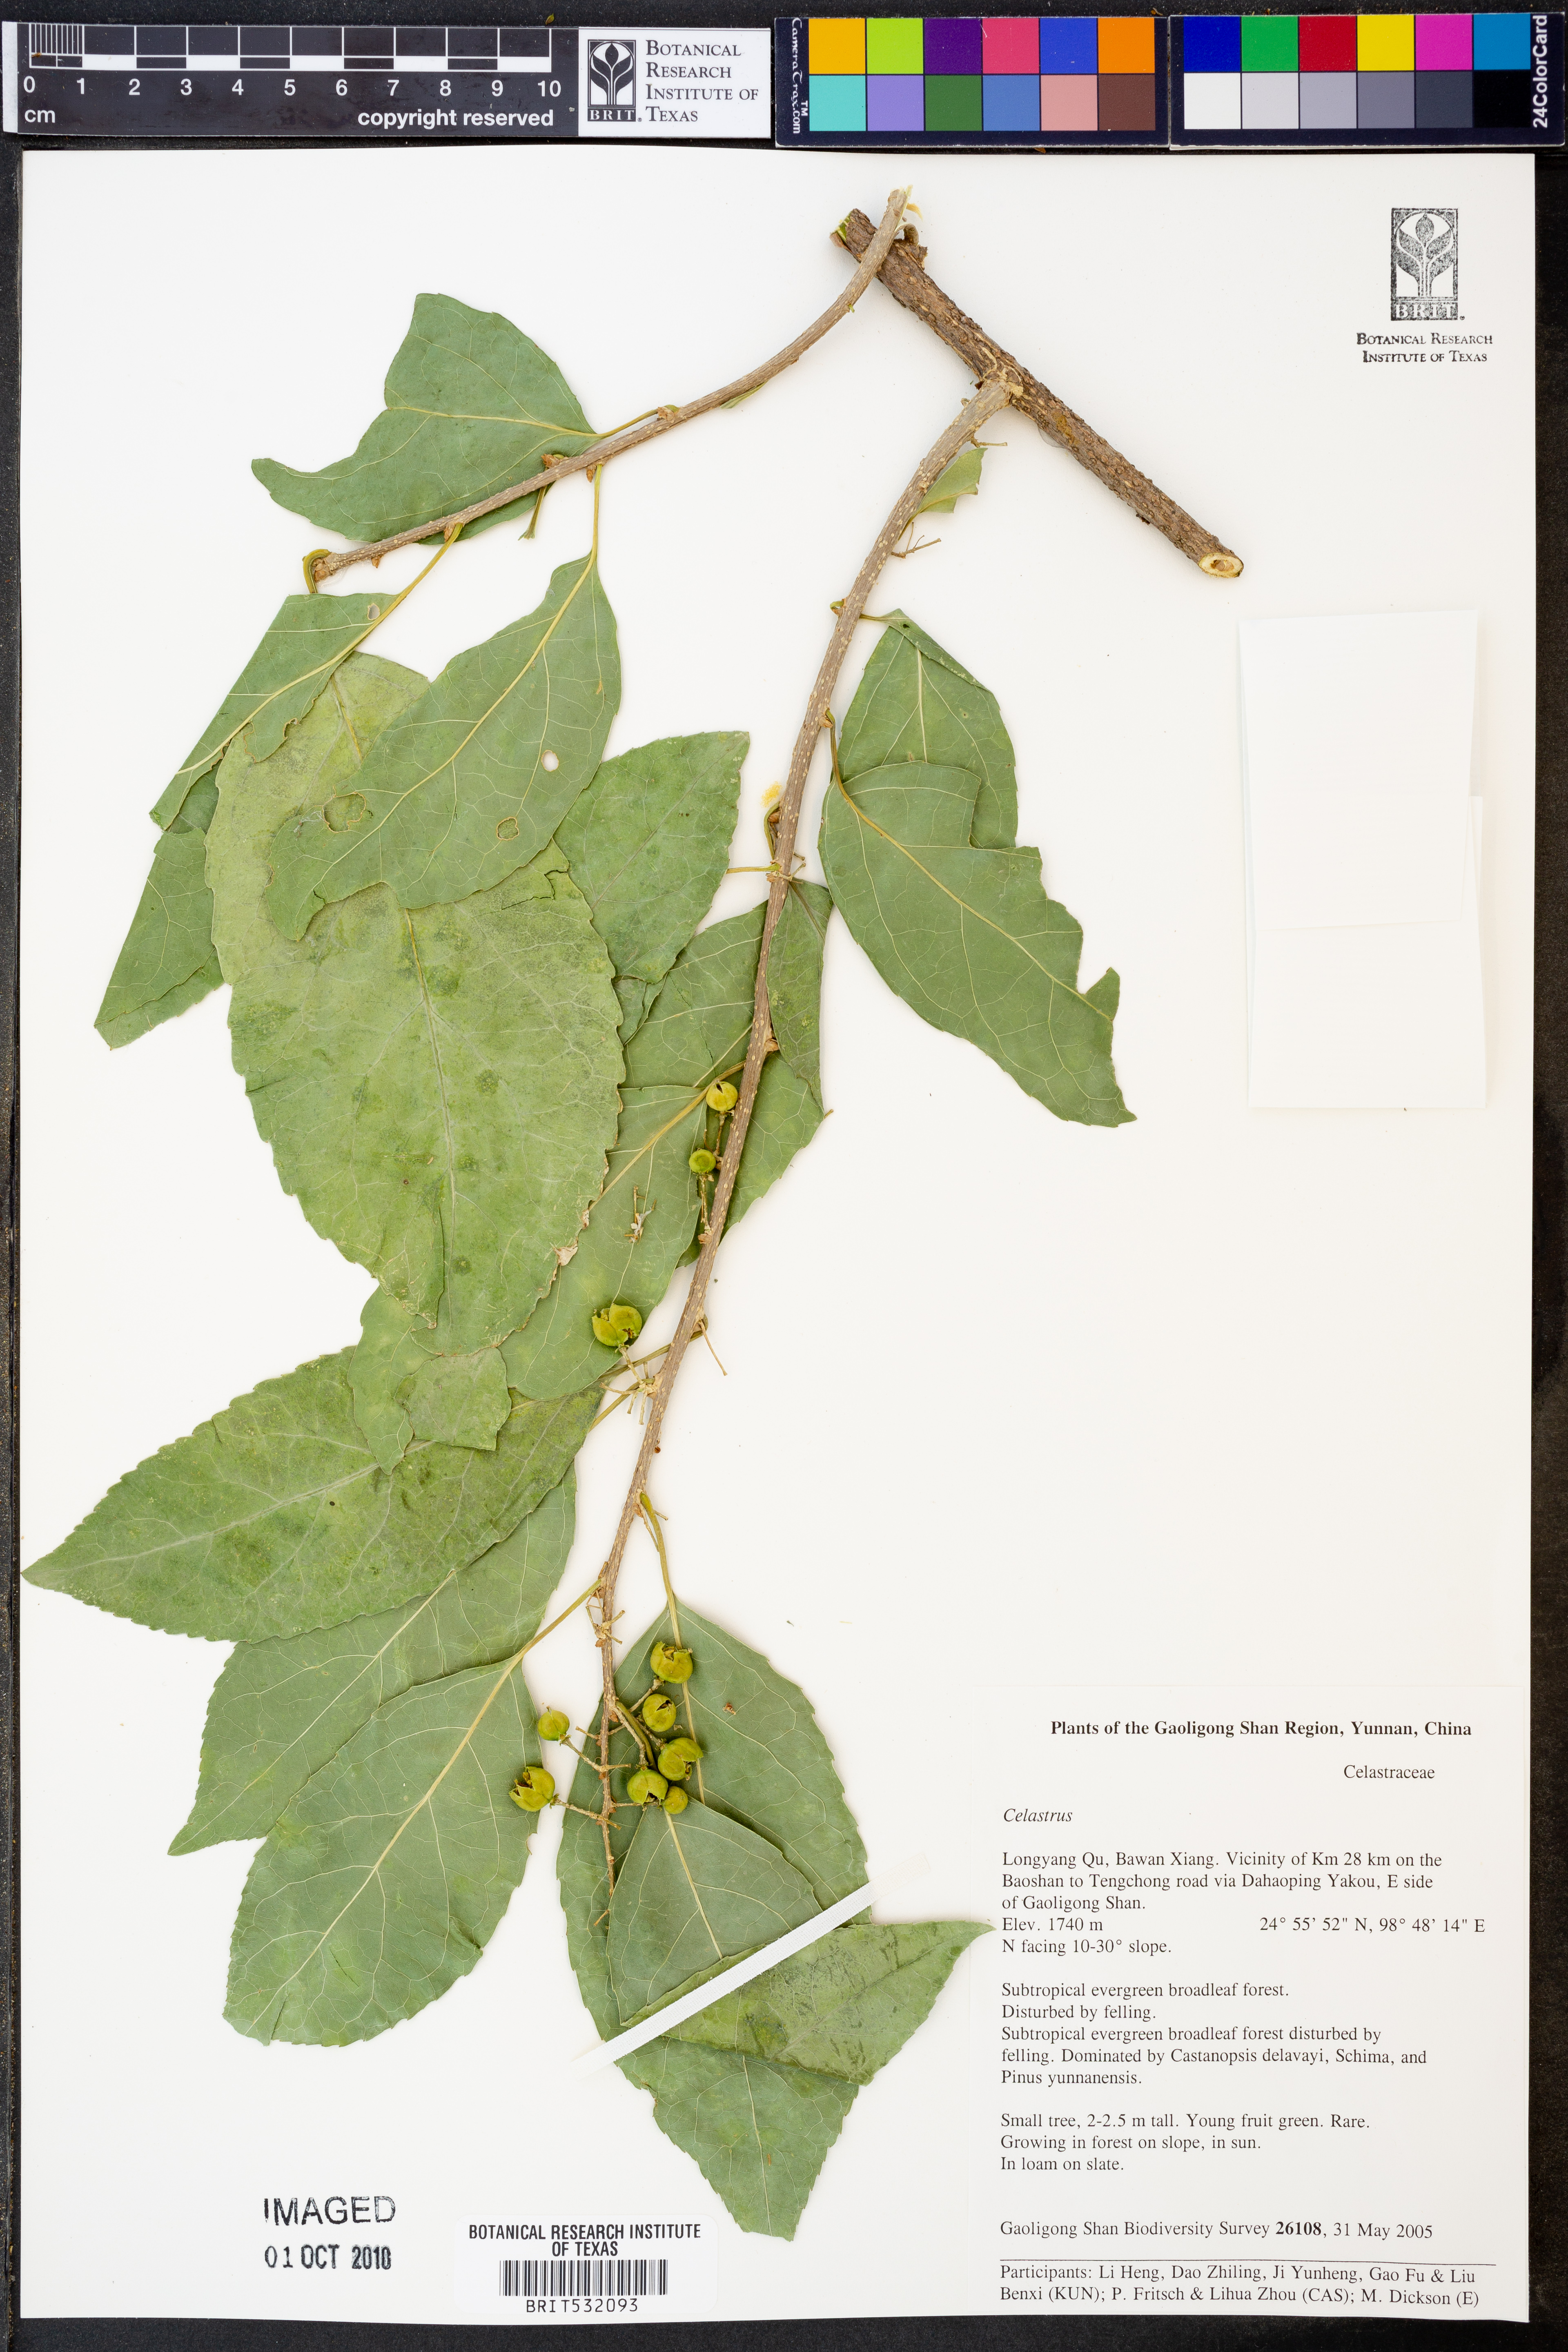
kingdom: Plantae
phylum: Tracheophyta
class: Magnoliopsida
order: Celastrales
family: Celastraceae
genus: Celastrus
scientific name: Celastrus
